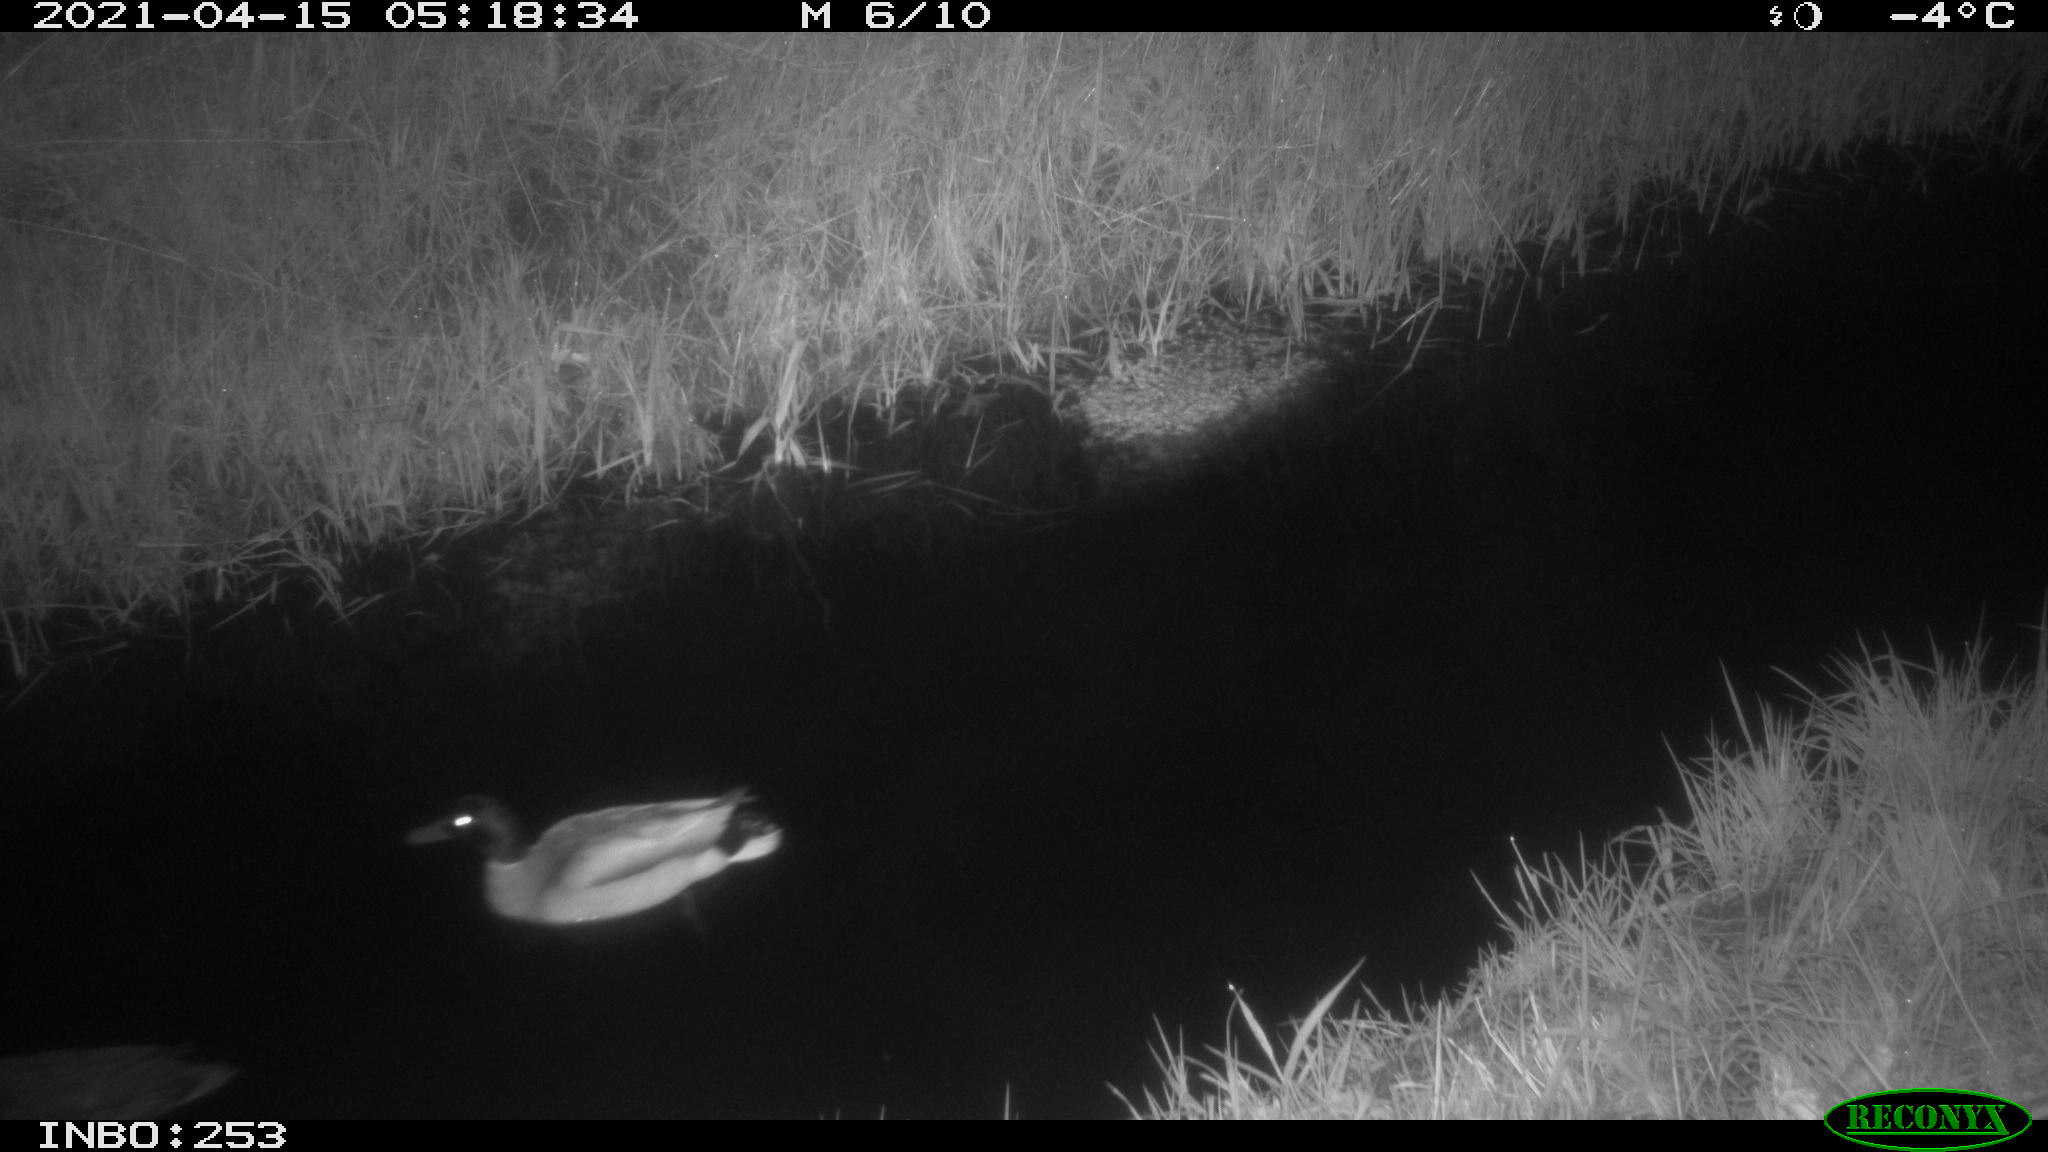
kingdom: Animalia
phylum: Chordata
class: Aves
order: Anseriformes
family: Anatidae
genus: Anas
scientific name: Anas platyrhynchos
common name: Mallard
